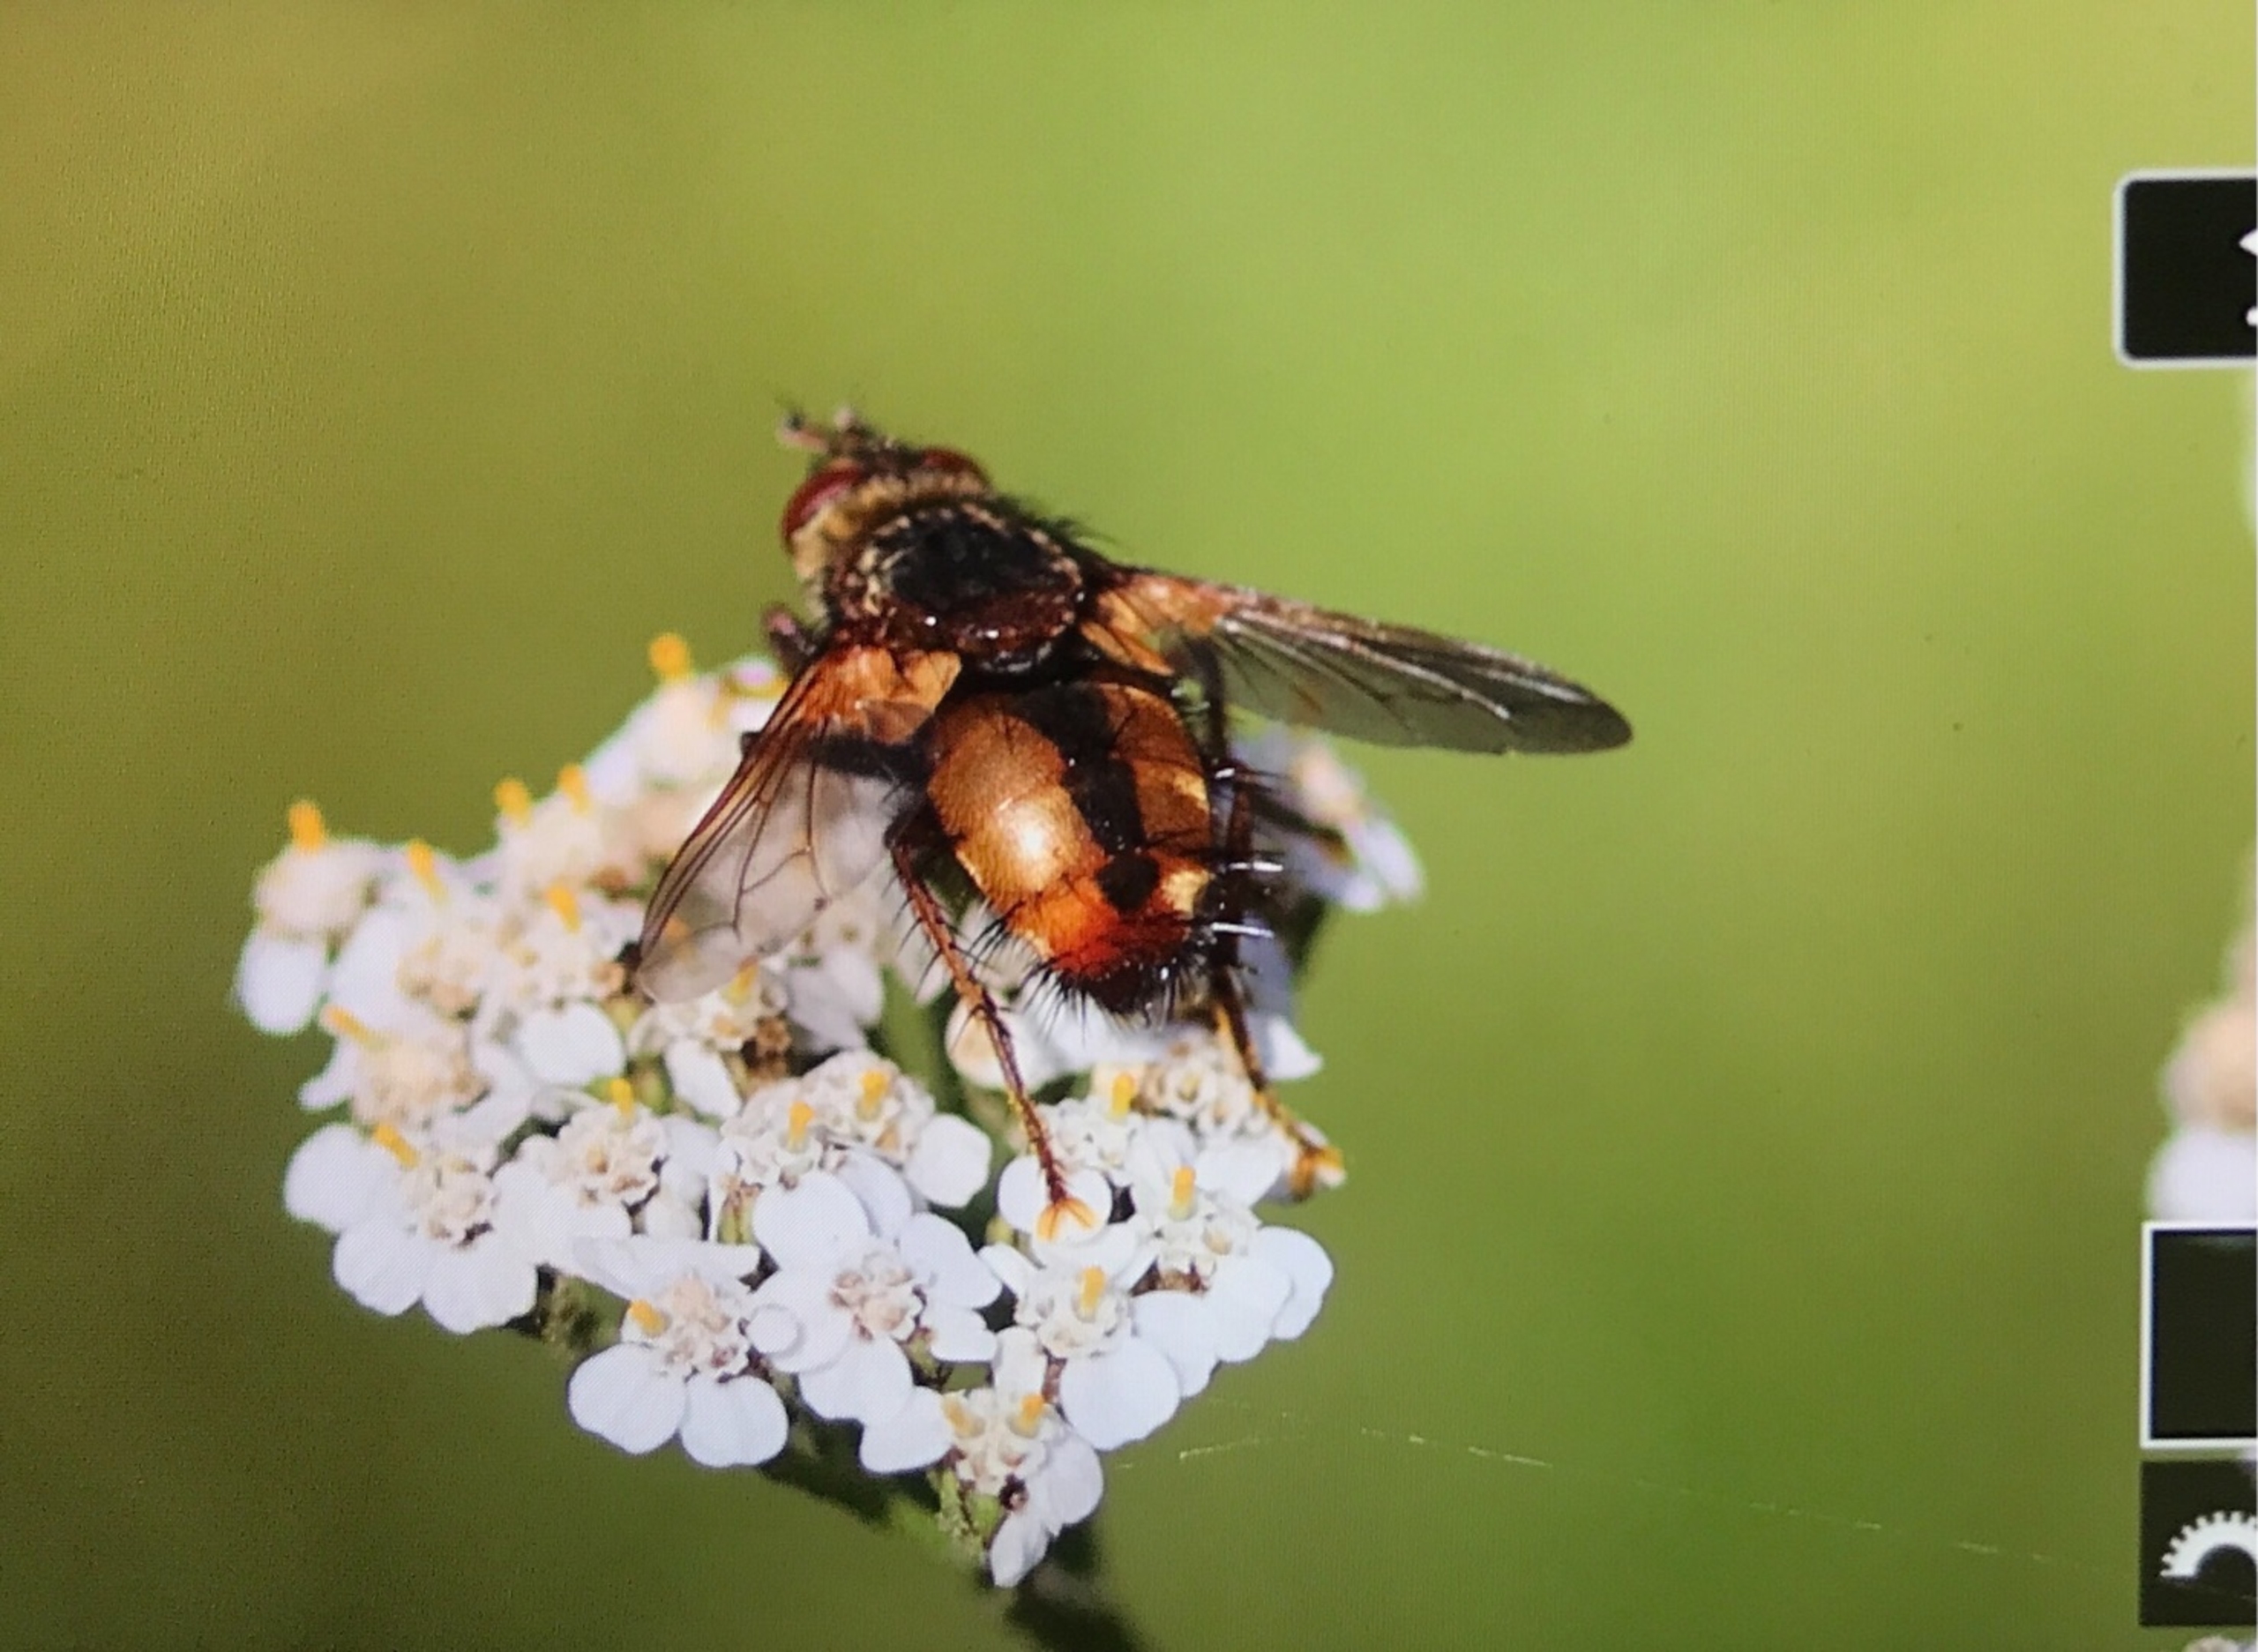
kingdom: Animalia
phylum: Arthropoda
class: Insecta
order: Diptera
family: Tachinidae
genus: Tachina
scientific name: Tachina fera
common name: Mellemfluen oskar
